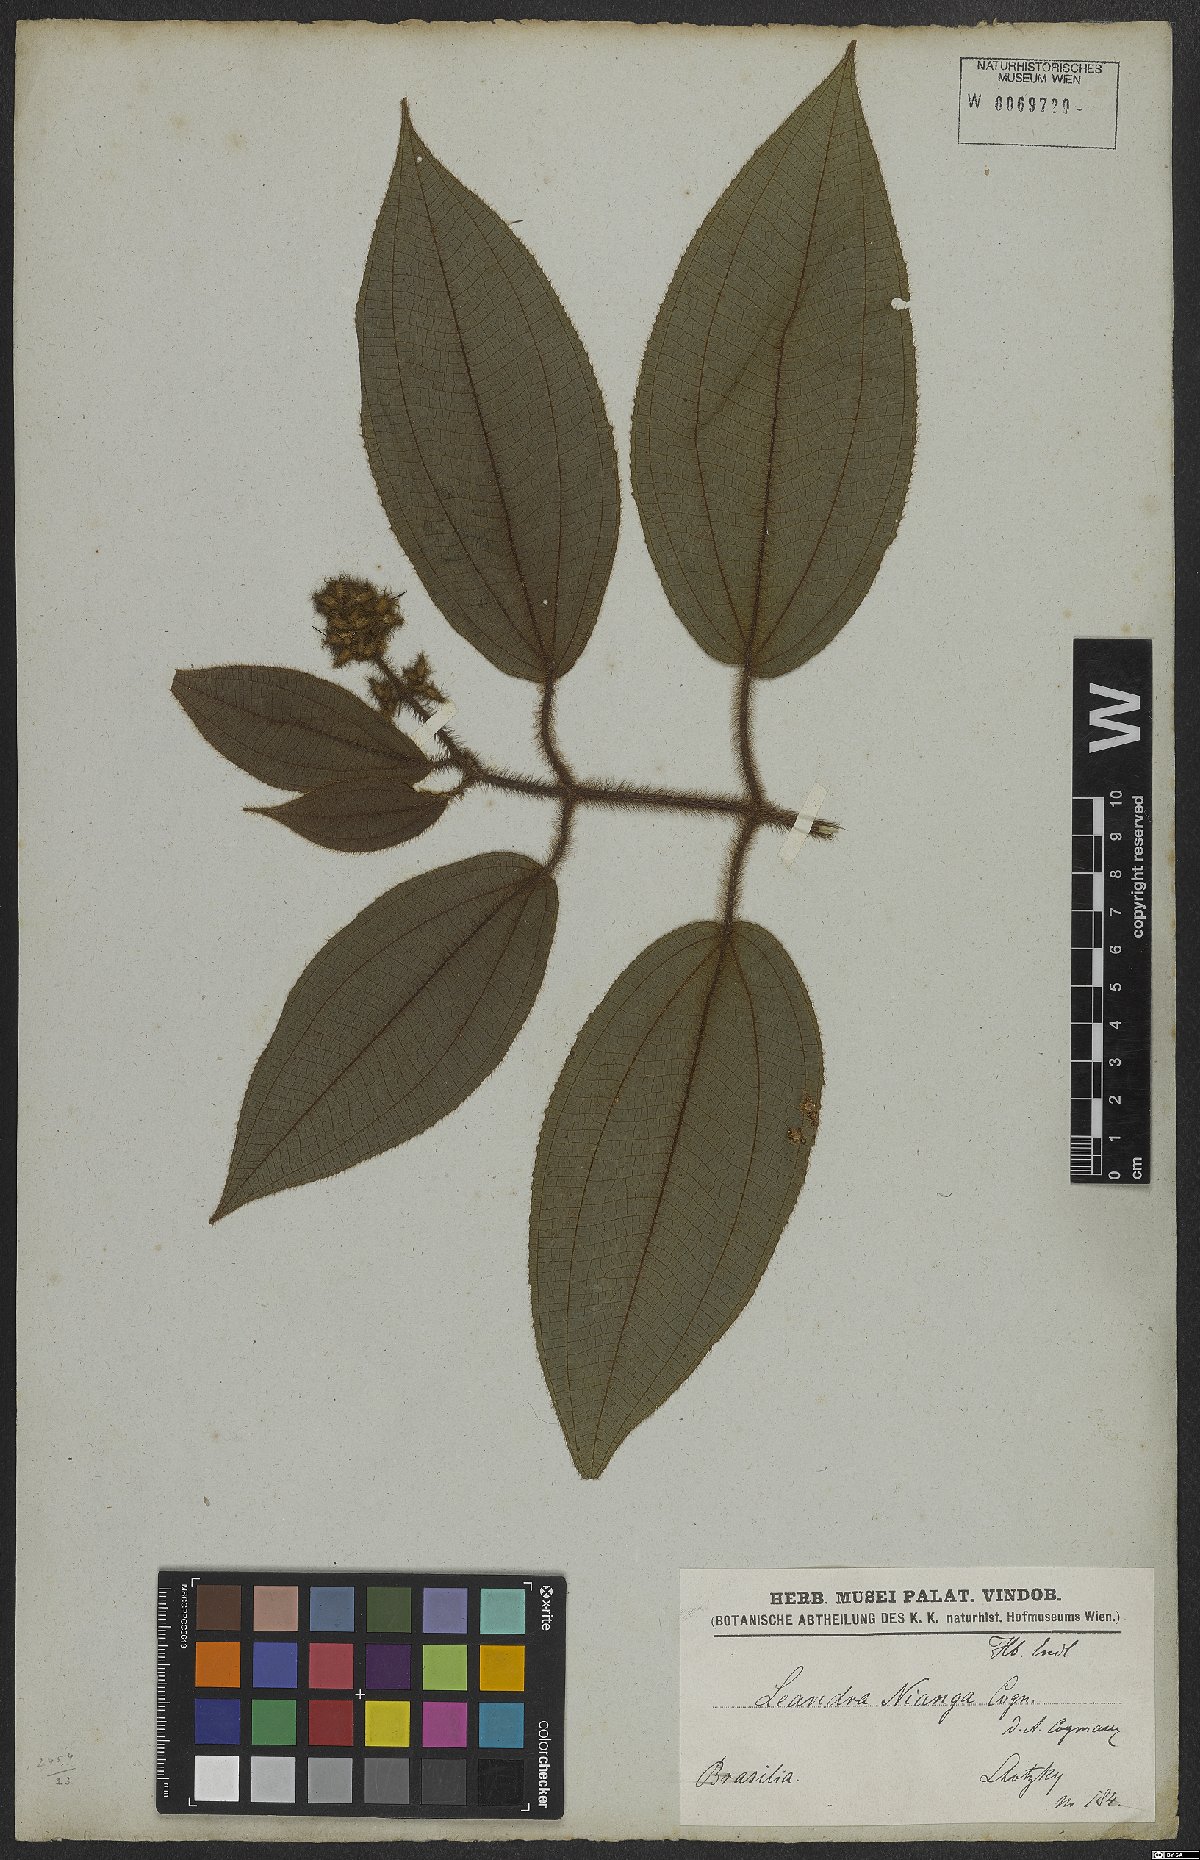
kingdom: Plantae
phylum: Tracheophyta
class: Magnoliopsida
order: Myrtales
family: Melastomataceae
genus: Miconia
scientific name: Miconia nianga
